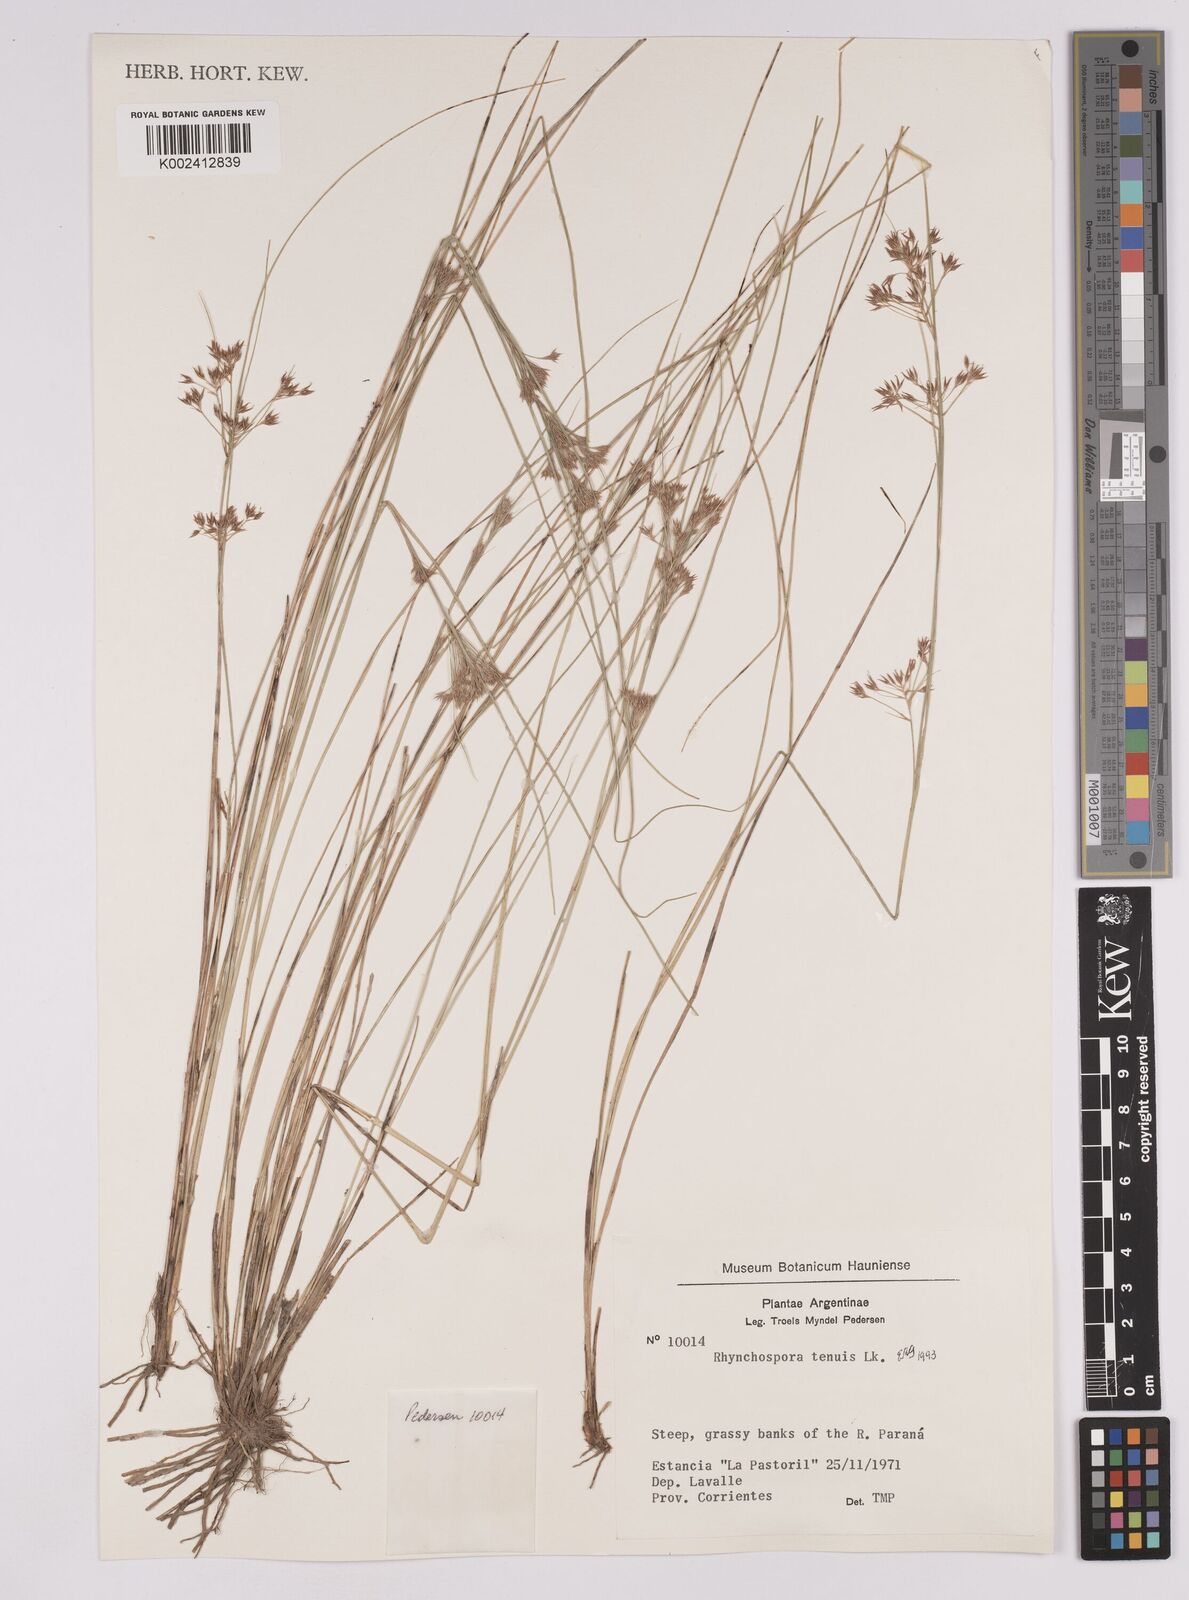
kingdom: Plantae
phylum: Tracheophyta
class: Liliopsida
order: Poales
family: Cyperaceae
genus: Rhynchospora
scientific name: Rhynchospora tenuis
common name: Quill beaksedge
